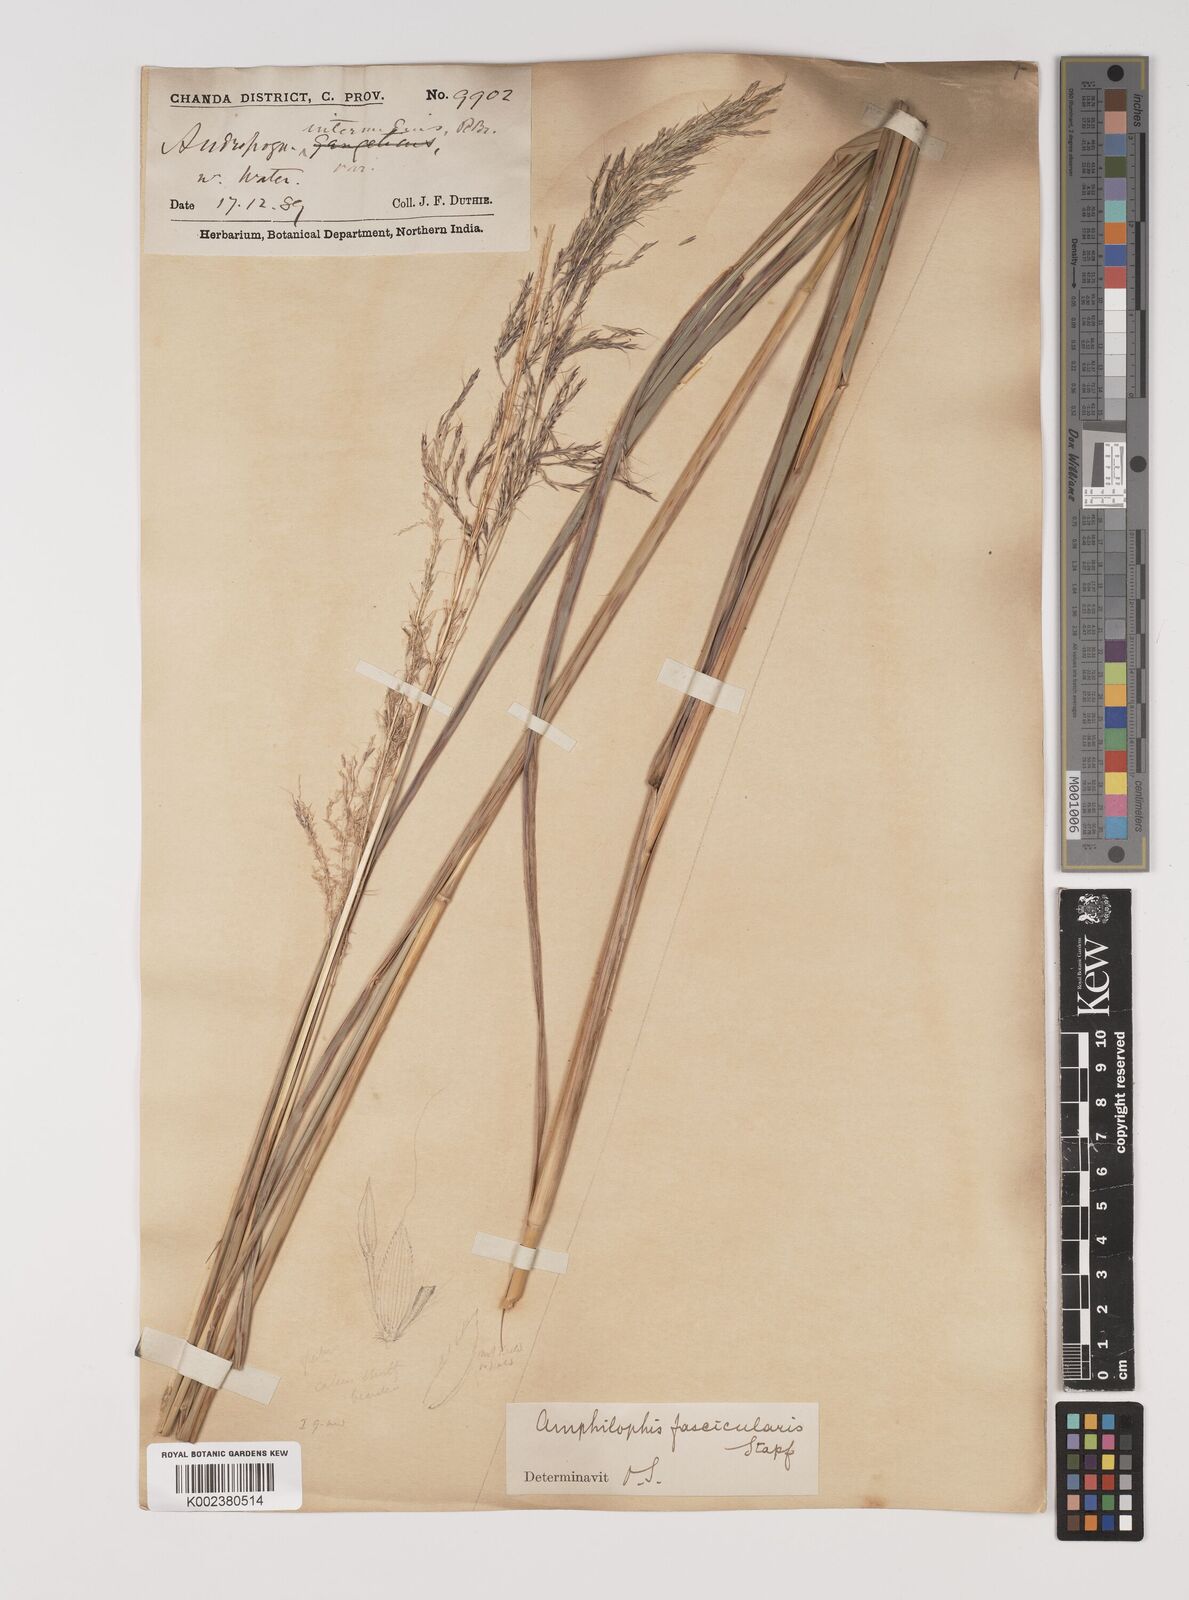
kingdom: Plantae
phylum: Tracheophyta
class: Liliopsida
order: Poales
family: Poaceae
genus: Bothriochloa
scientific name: Bothriochloa bladhii
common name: Caucasian bluestem
